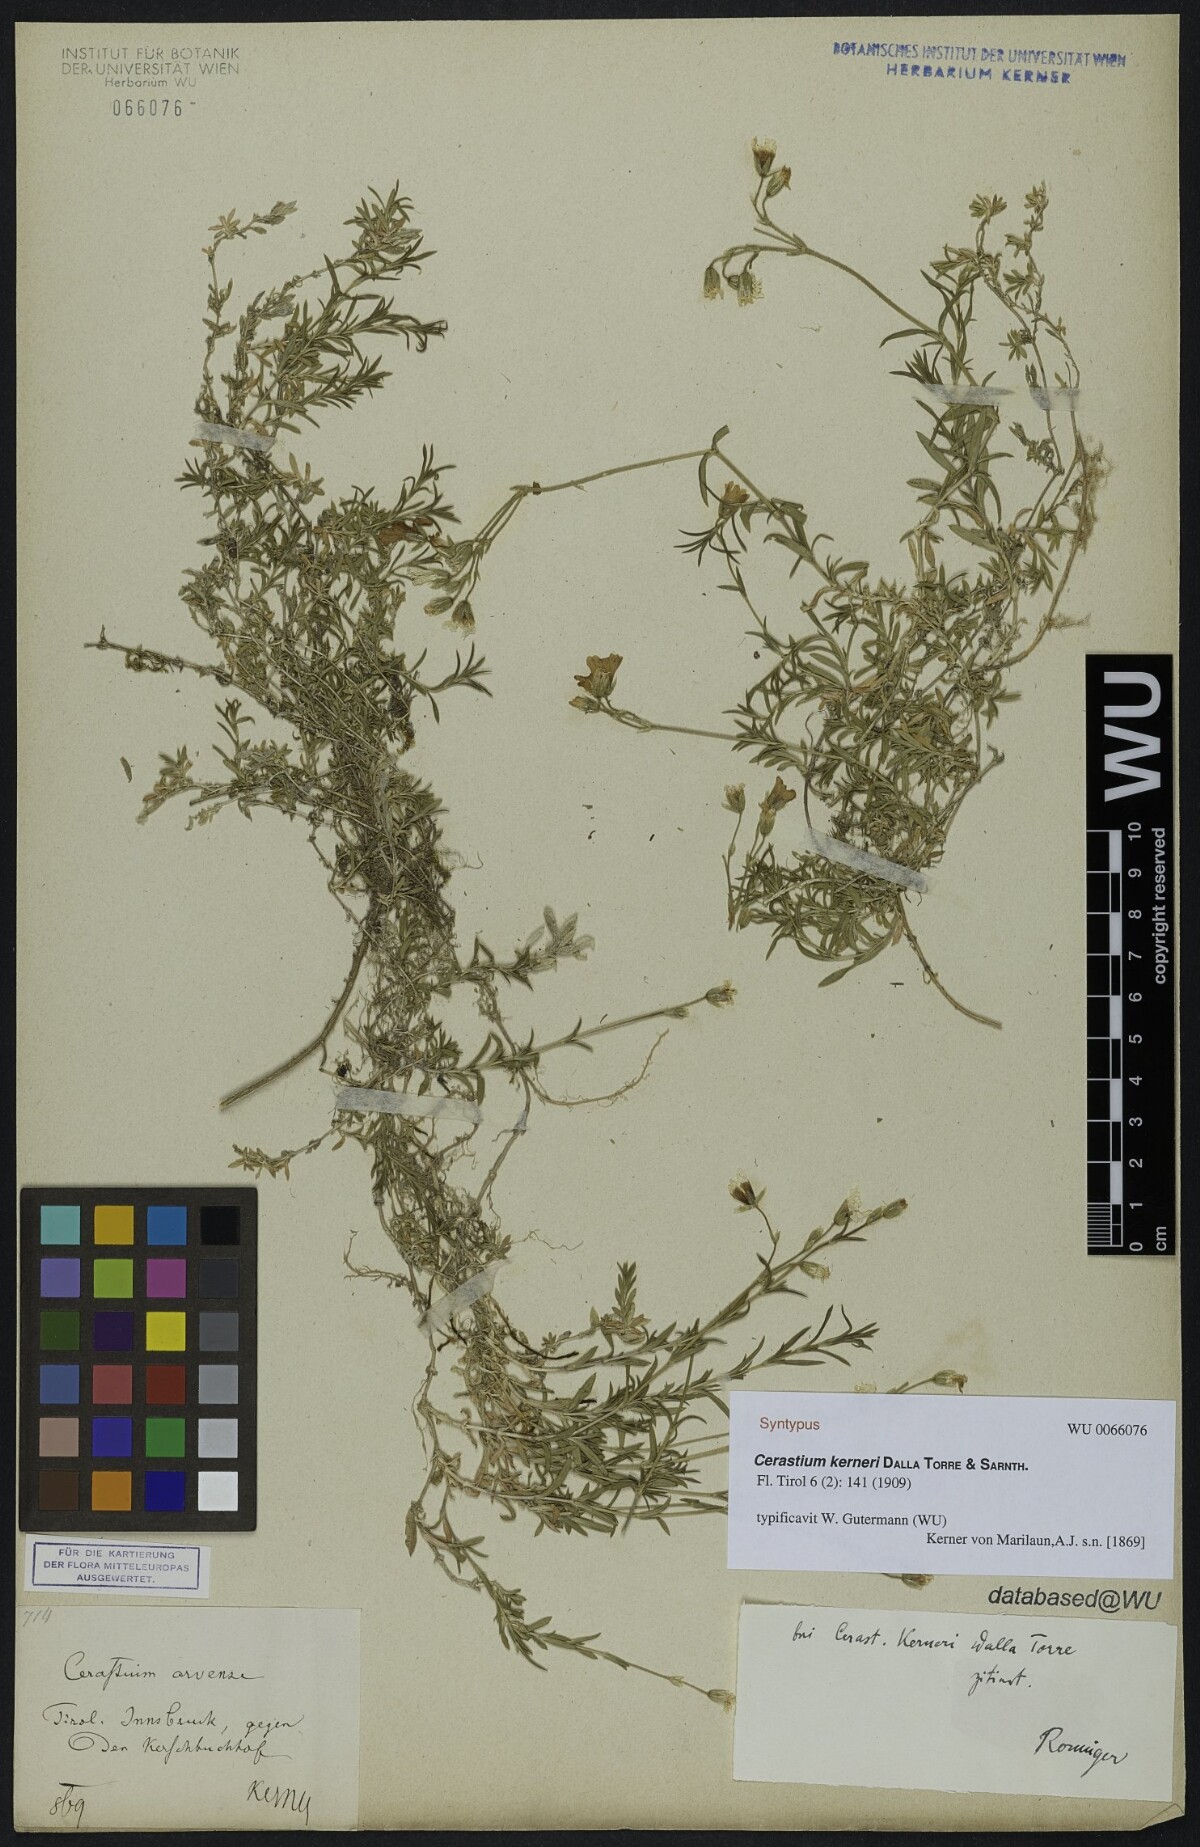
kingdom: Plantae
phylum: Tracheophyta
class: Magnoliopsida
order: Caryophyllales
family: Caryophyllaceae
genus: Cerastium
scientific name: Cerastium elongatum
